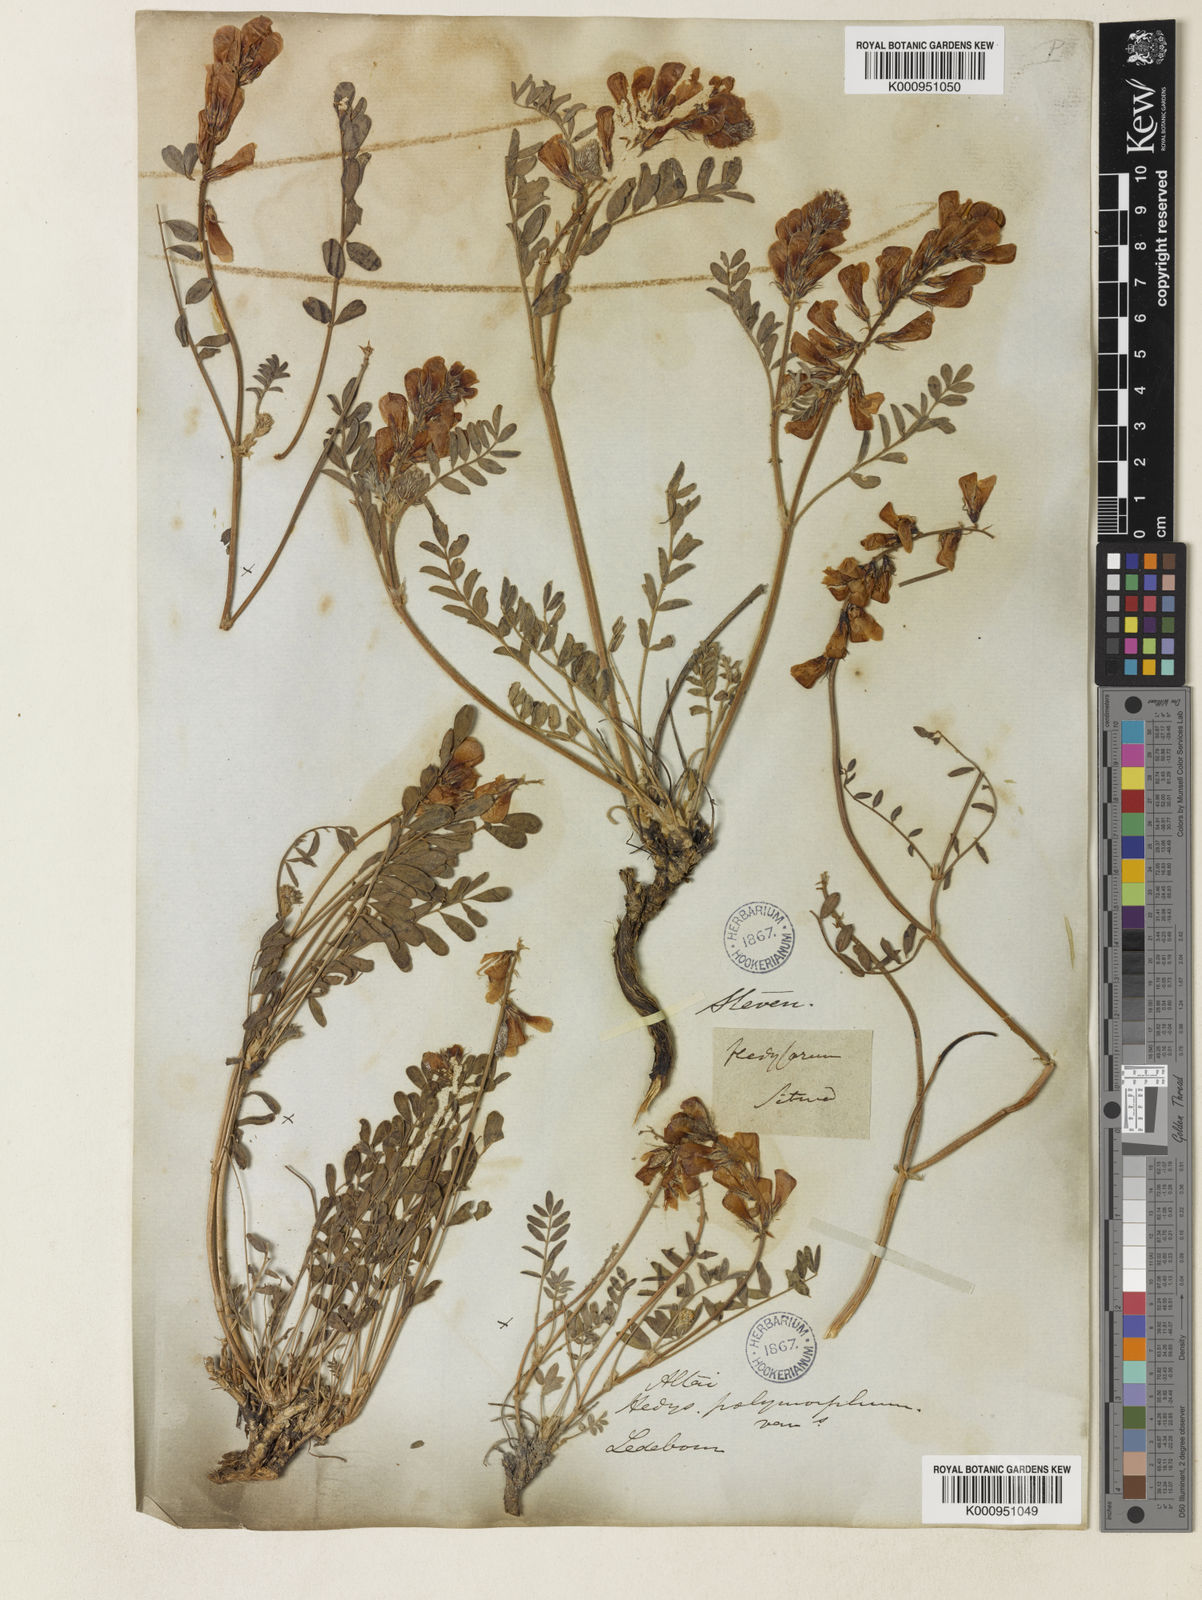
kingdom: Plantae
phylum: Tracheophyta
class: Magnoliopsida
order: Fabales
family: Fabaceae
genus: Hedysarum
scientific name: Hedysarum gmelinii
